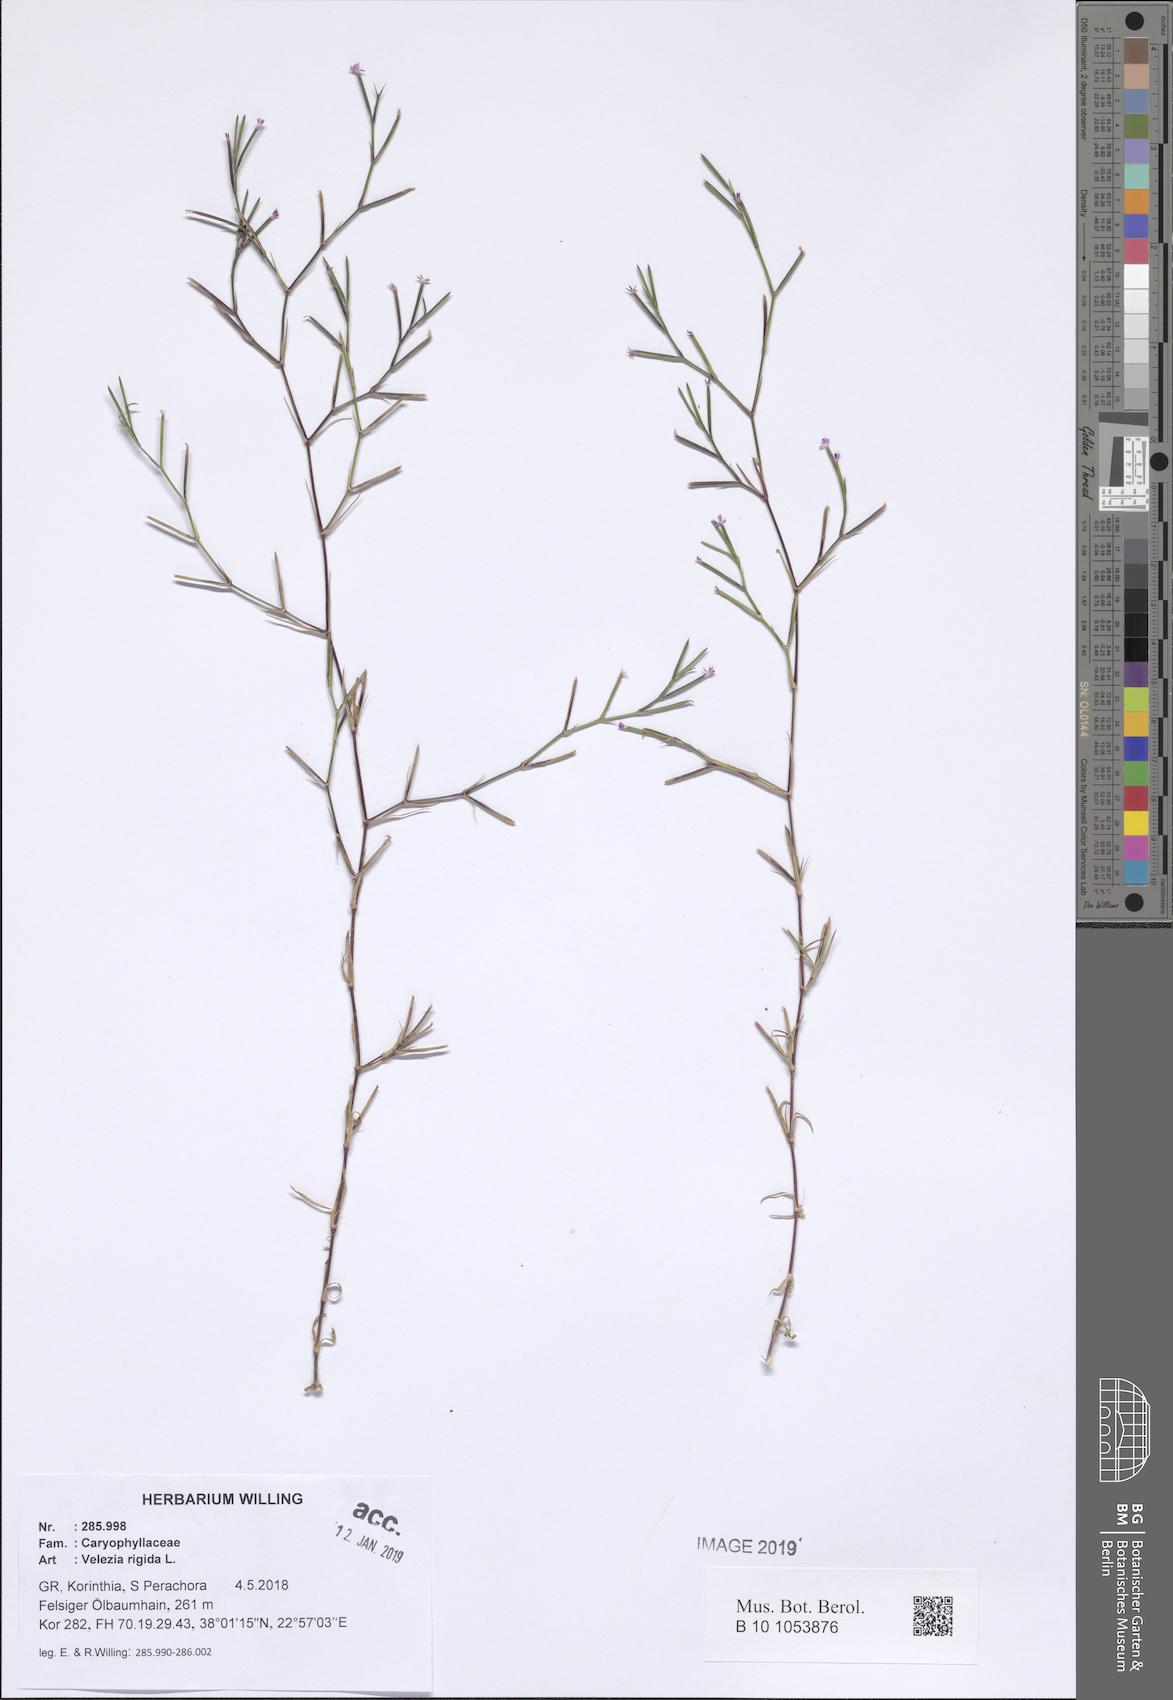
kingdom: Plantae
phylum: Tracheophyta
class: Magnoliopsida
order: Caryophyllales
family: Caryophyllaceae
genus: Dianthus
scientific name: Dianthus nudiflorus
